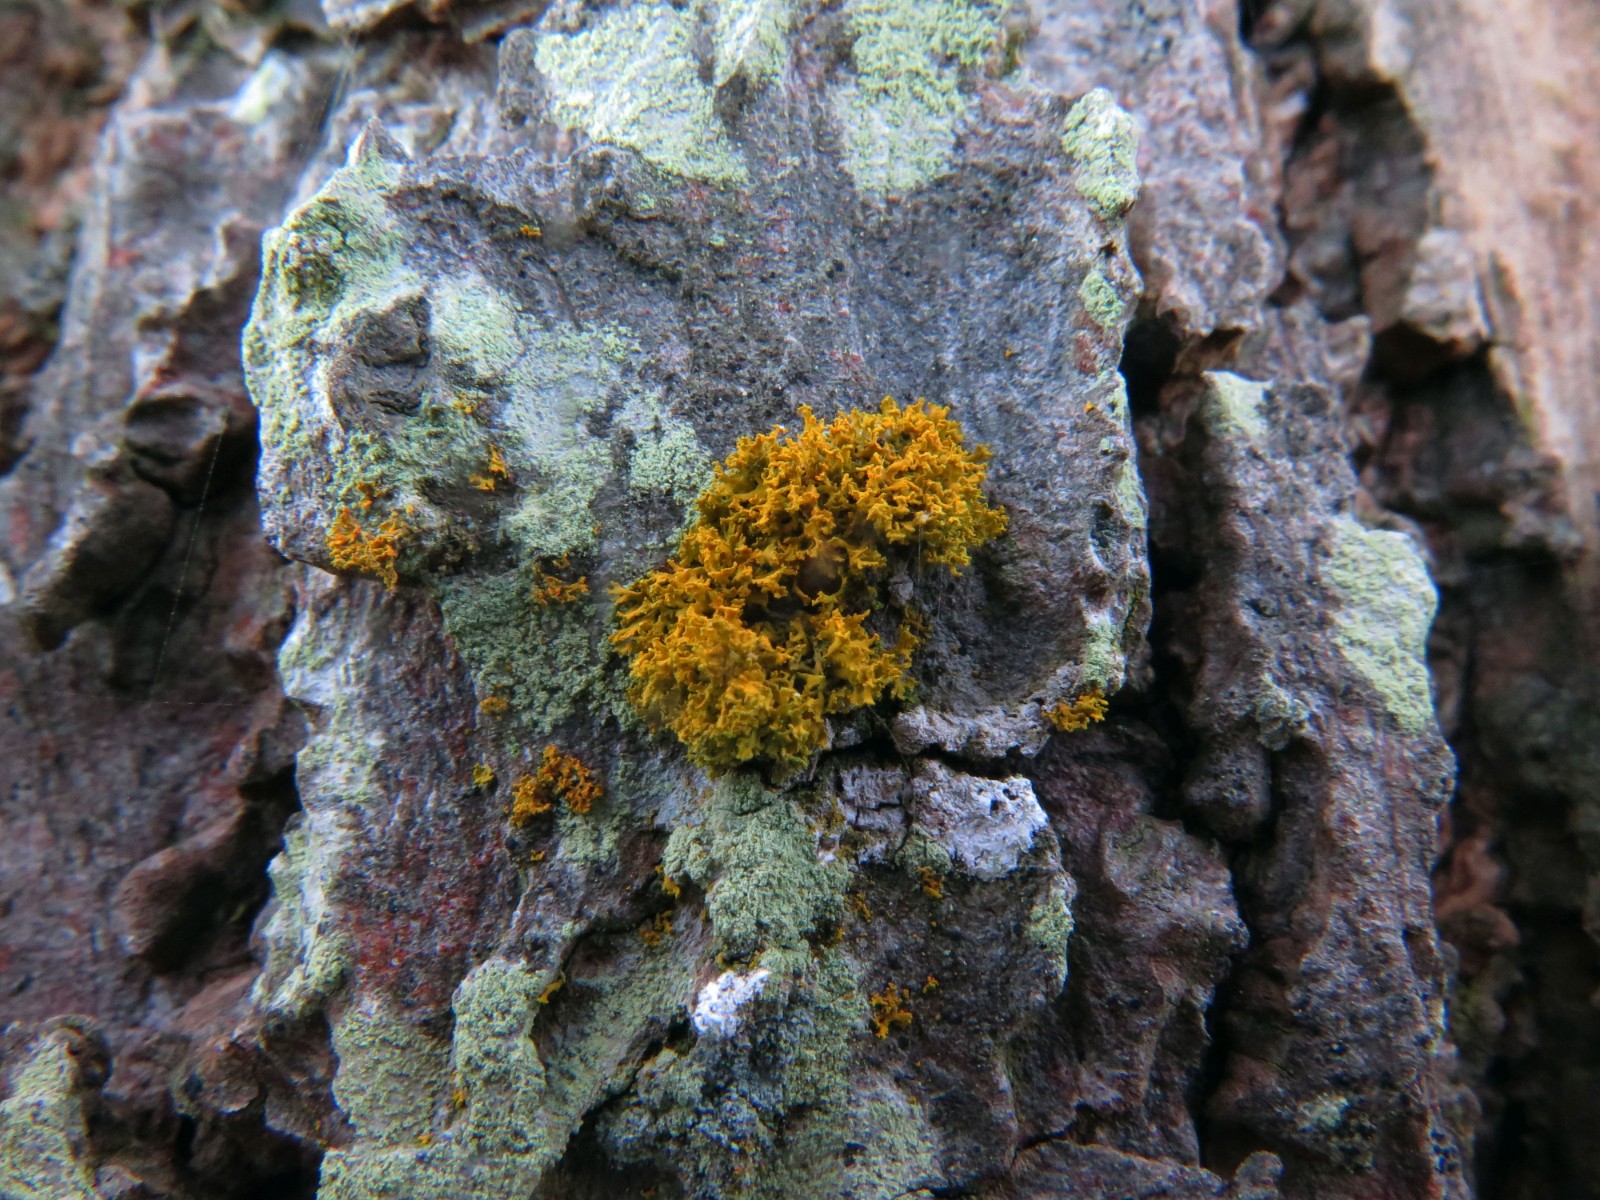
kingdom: Fungi
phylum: Ascomycota
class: Lecanoromycetes
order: Teloschistales
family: Teloschistaceae
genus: Polycauliona
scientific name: Polycauliona candelaria
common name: tue-orangelav
